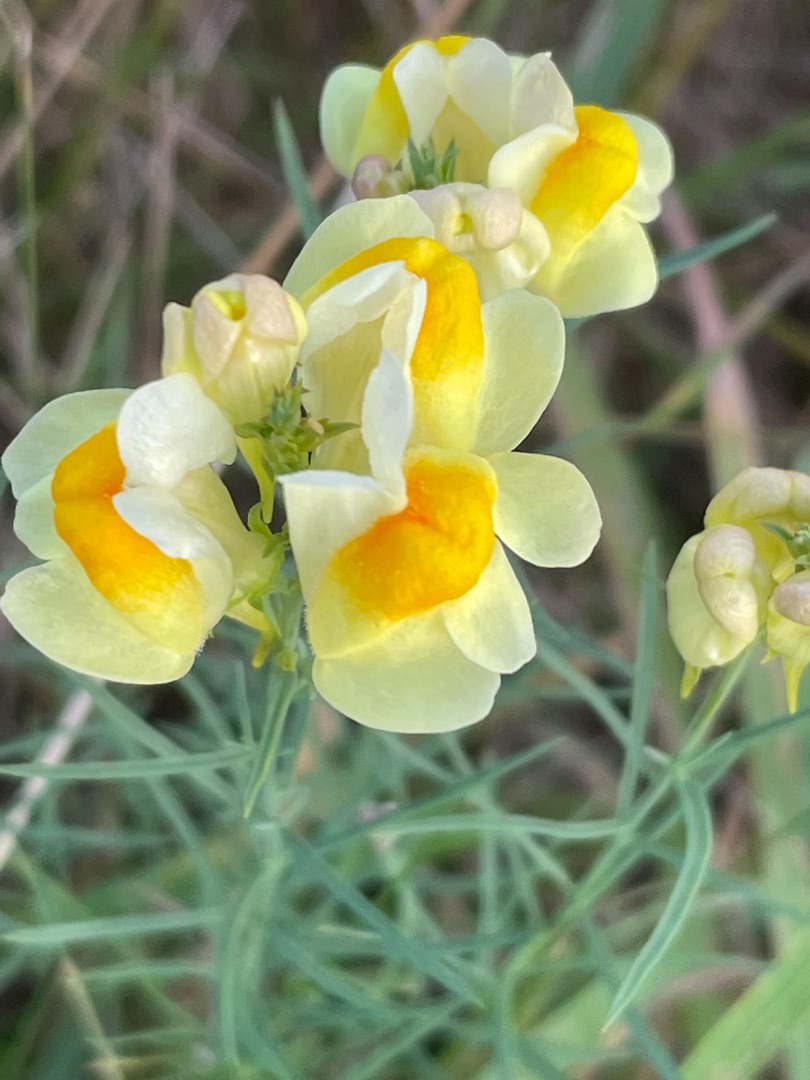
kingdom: Plantae
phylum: Tracheophyta
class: Magnoliopsida
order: Lamiales
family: Plantaginaceae
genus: Linaria
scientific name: Linaria vulgaris
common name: Almindelig torskemund
